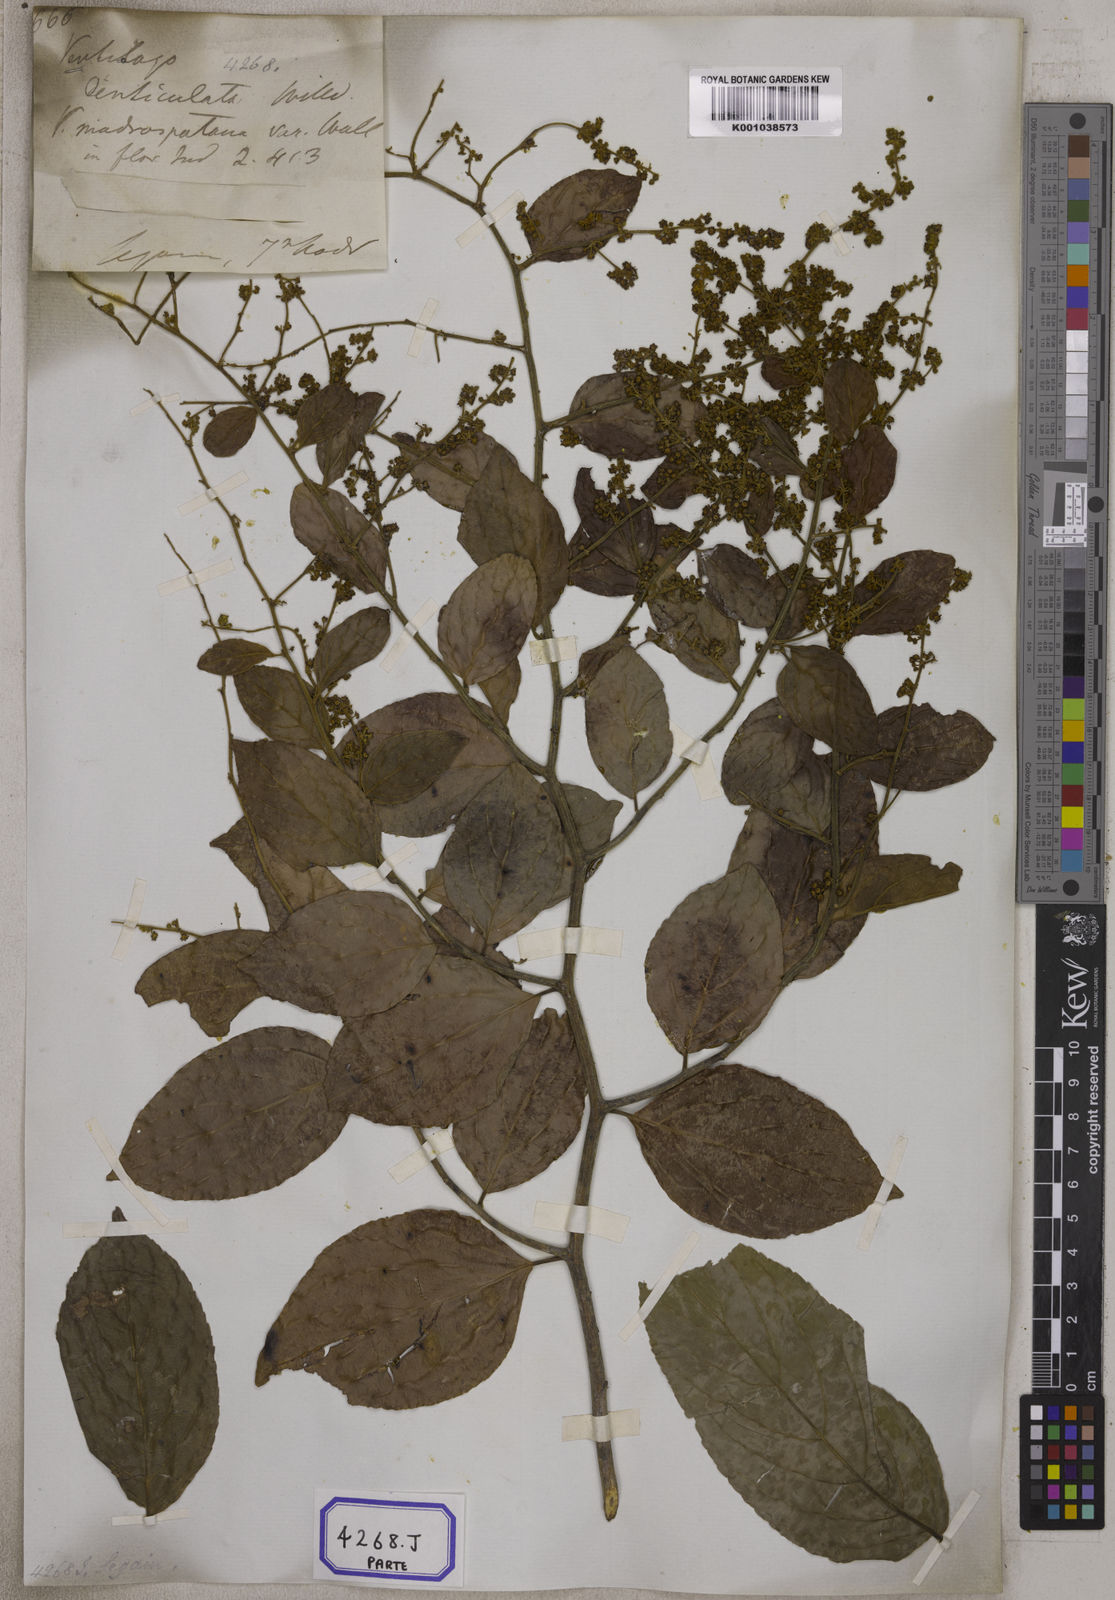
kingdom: Plantae
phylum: Tracheophyta
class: Magnoliopsida
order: Rosales
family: Rhamnaceae
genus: Ventilago
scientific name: Ventilago madraspatana
